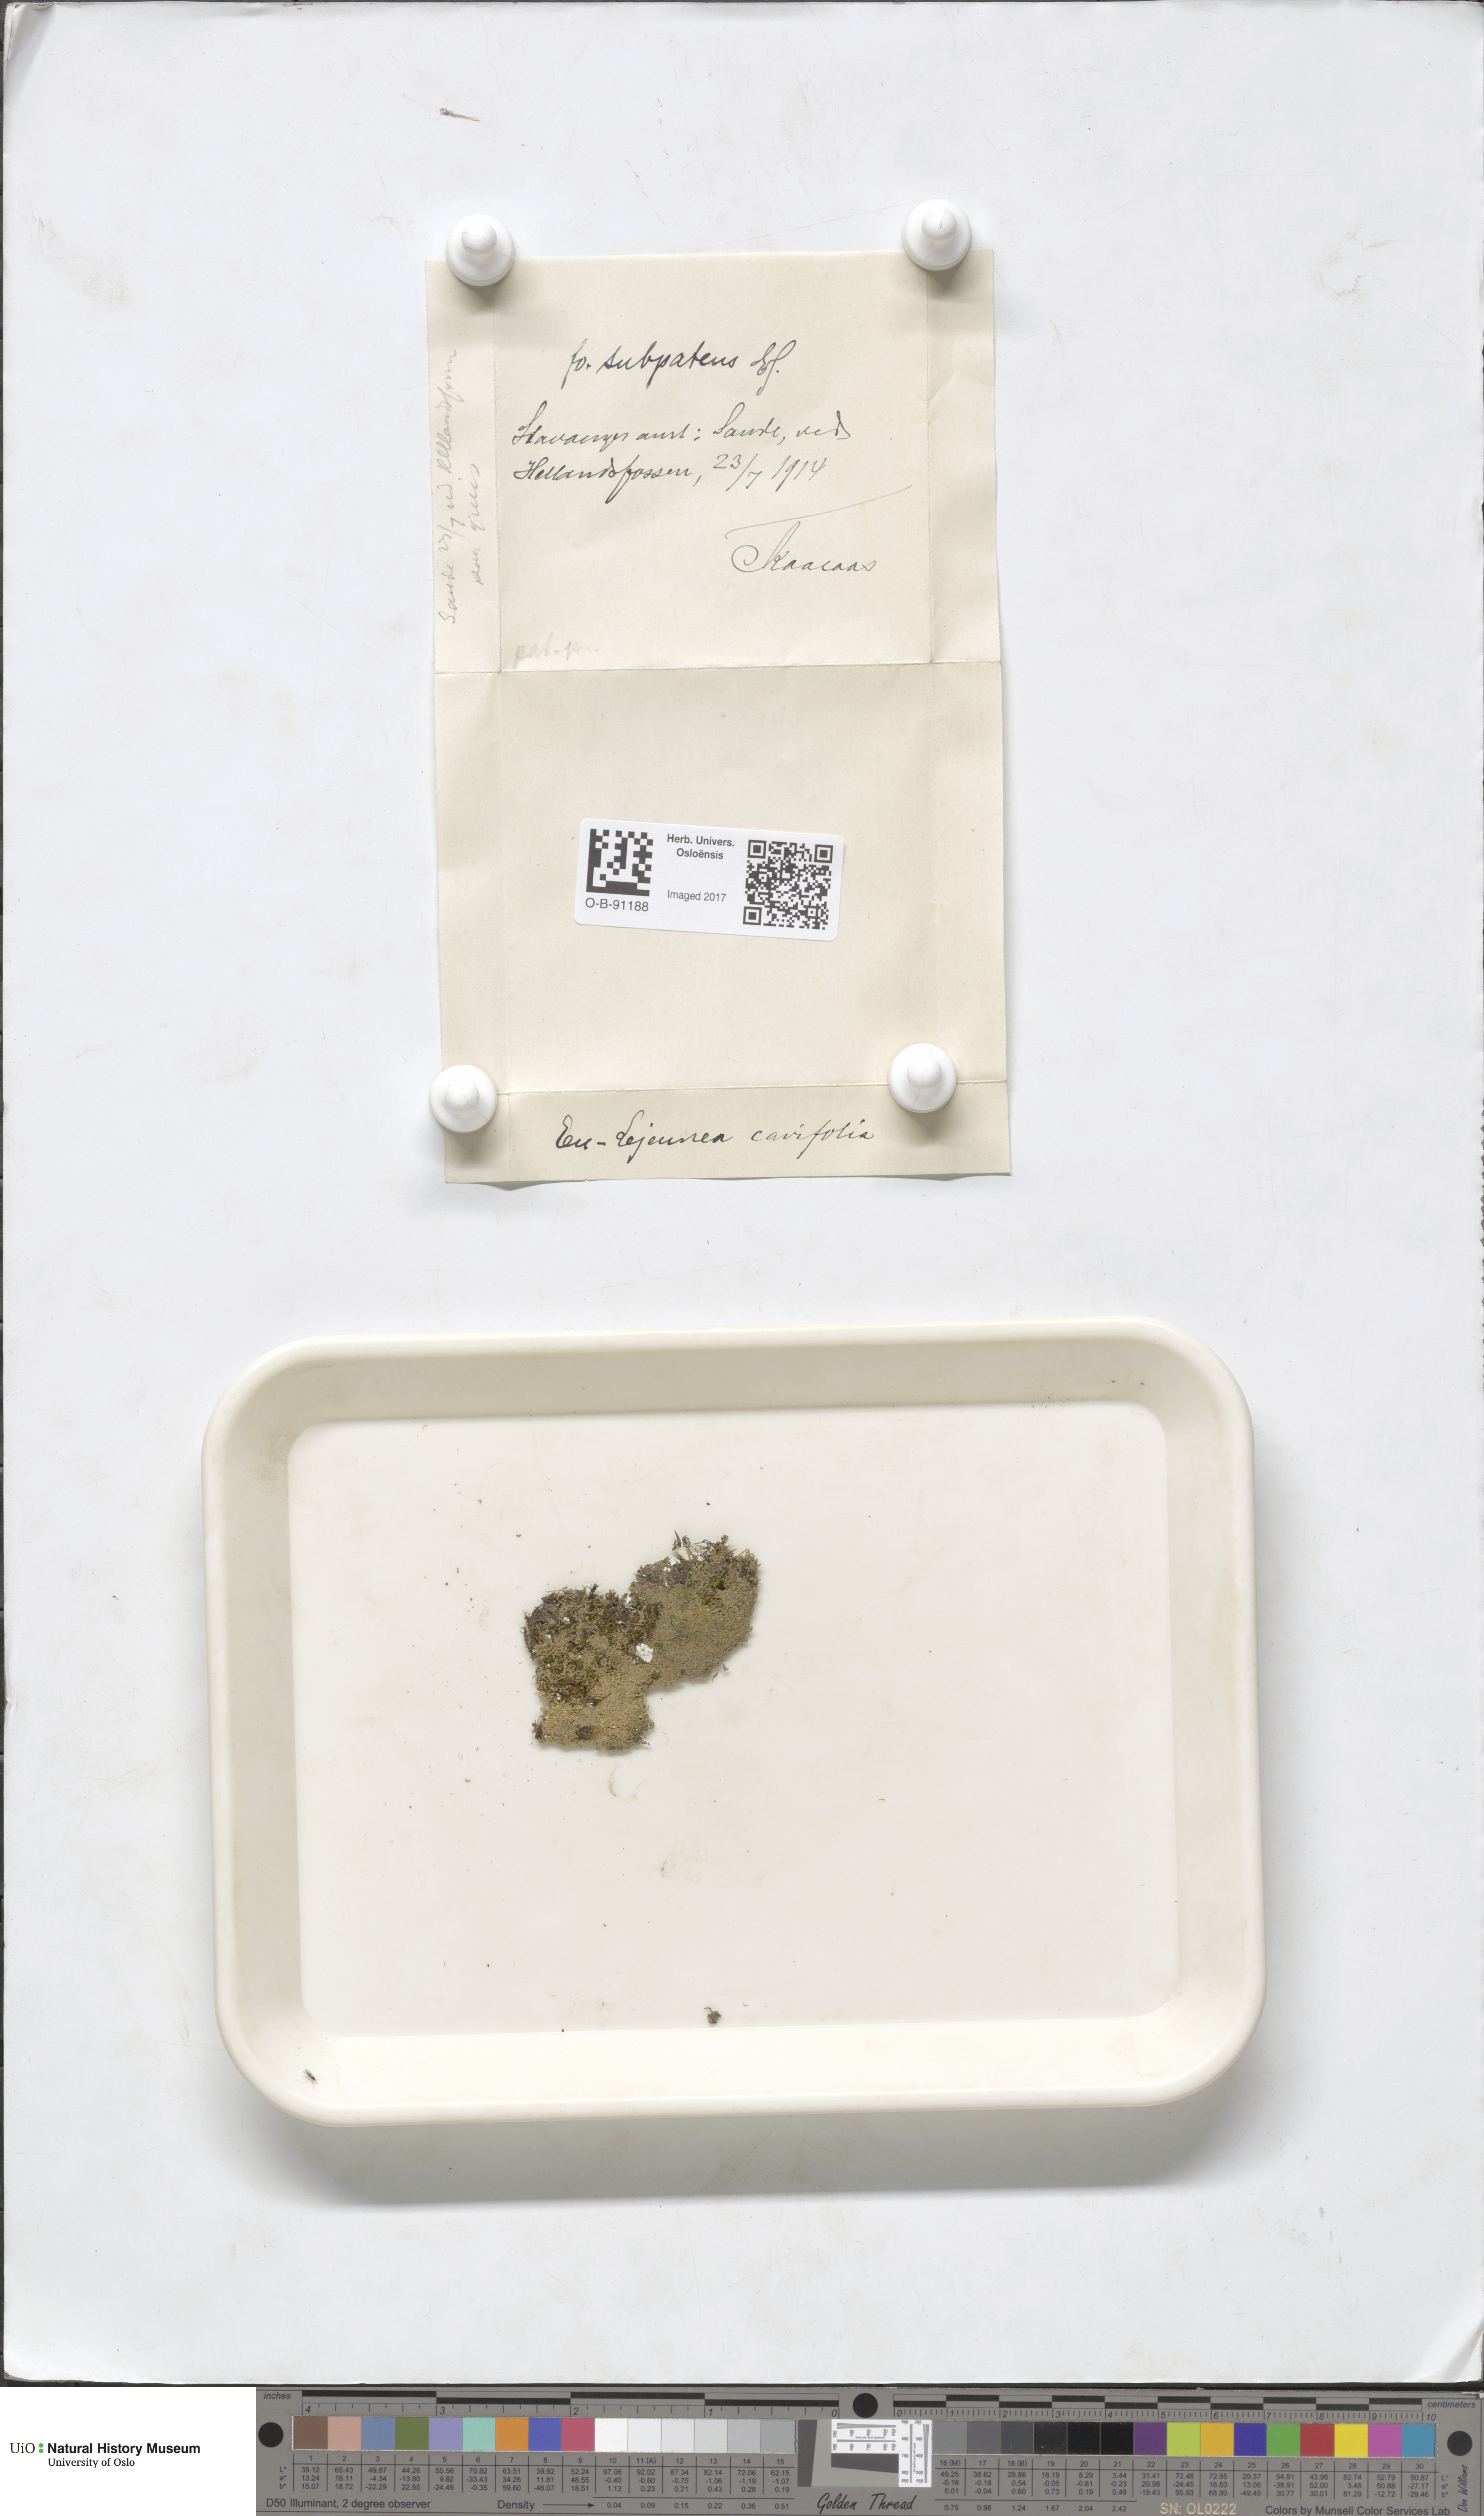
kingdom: Plantae
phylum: Marchantiophyta
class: Jungermanniopsida
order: Porellales
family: Lejeuneaceae
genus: Lejeunea
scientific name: Lejeunea cavifolia
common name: Least pouncewort
